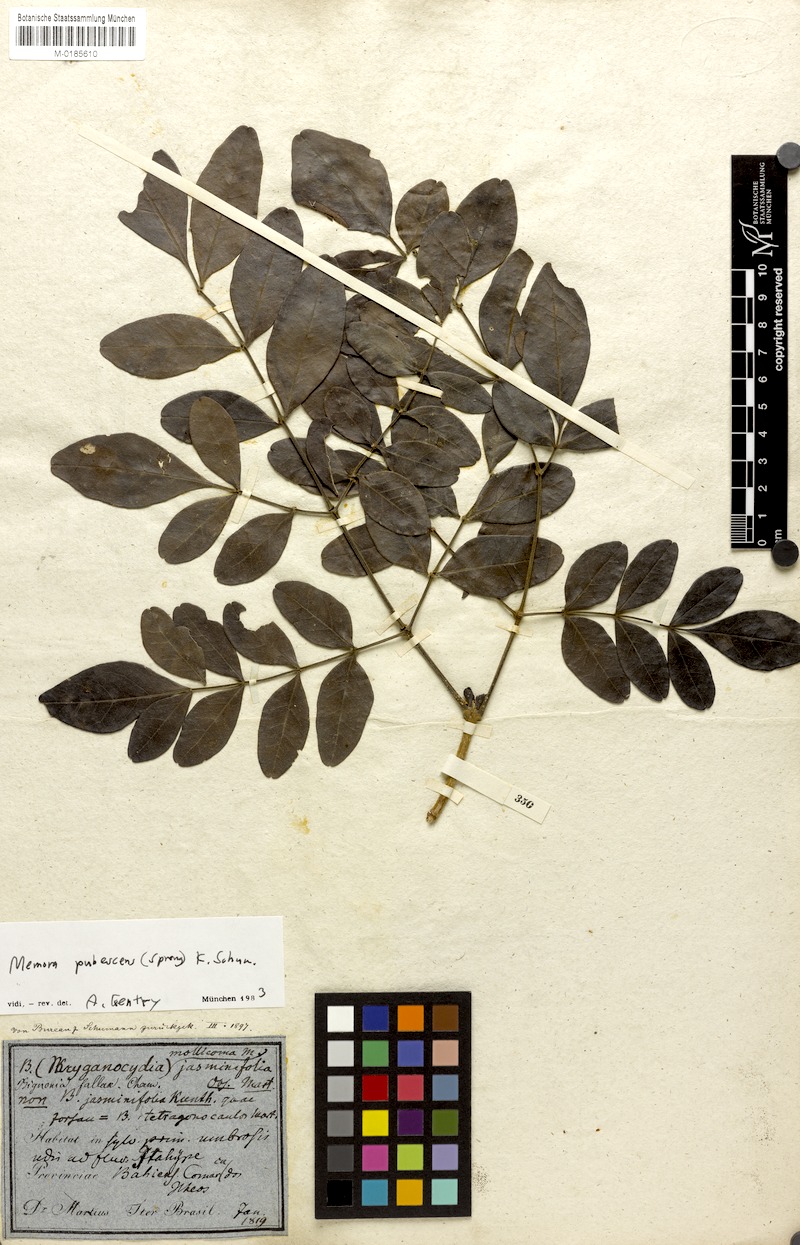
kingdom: Plantae
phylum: Tracheophyta
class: Magnoliopsida
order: Lamiales
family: Bignoniaceae
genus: Adenocalymma
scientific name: Adenocalymma pubescens
